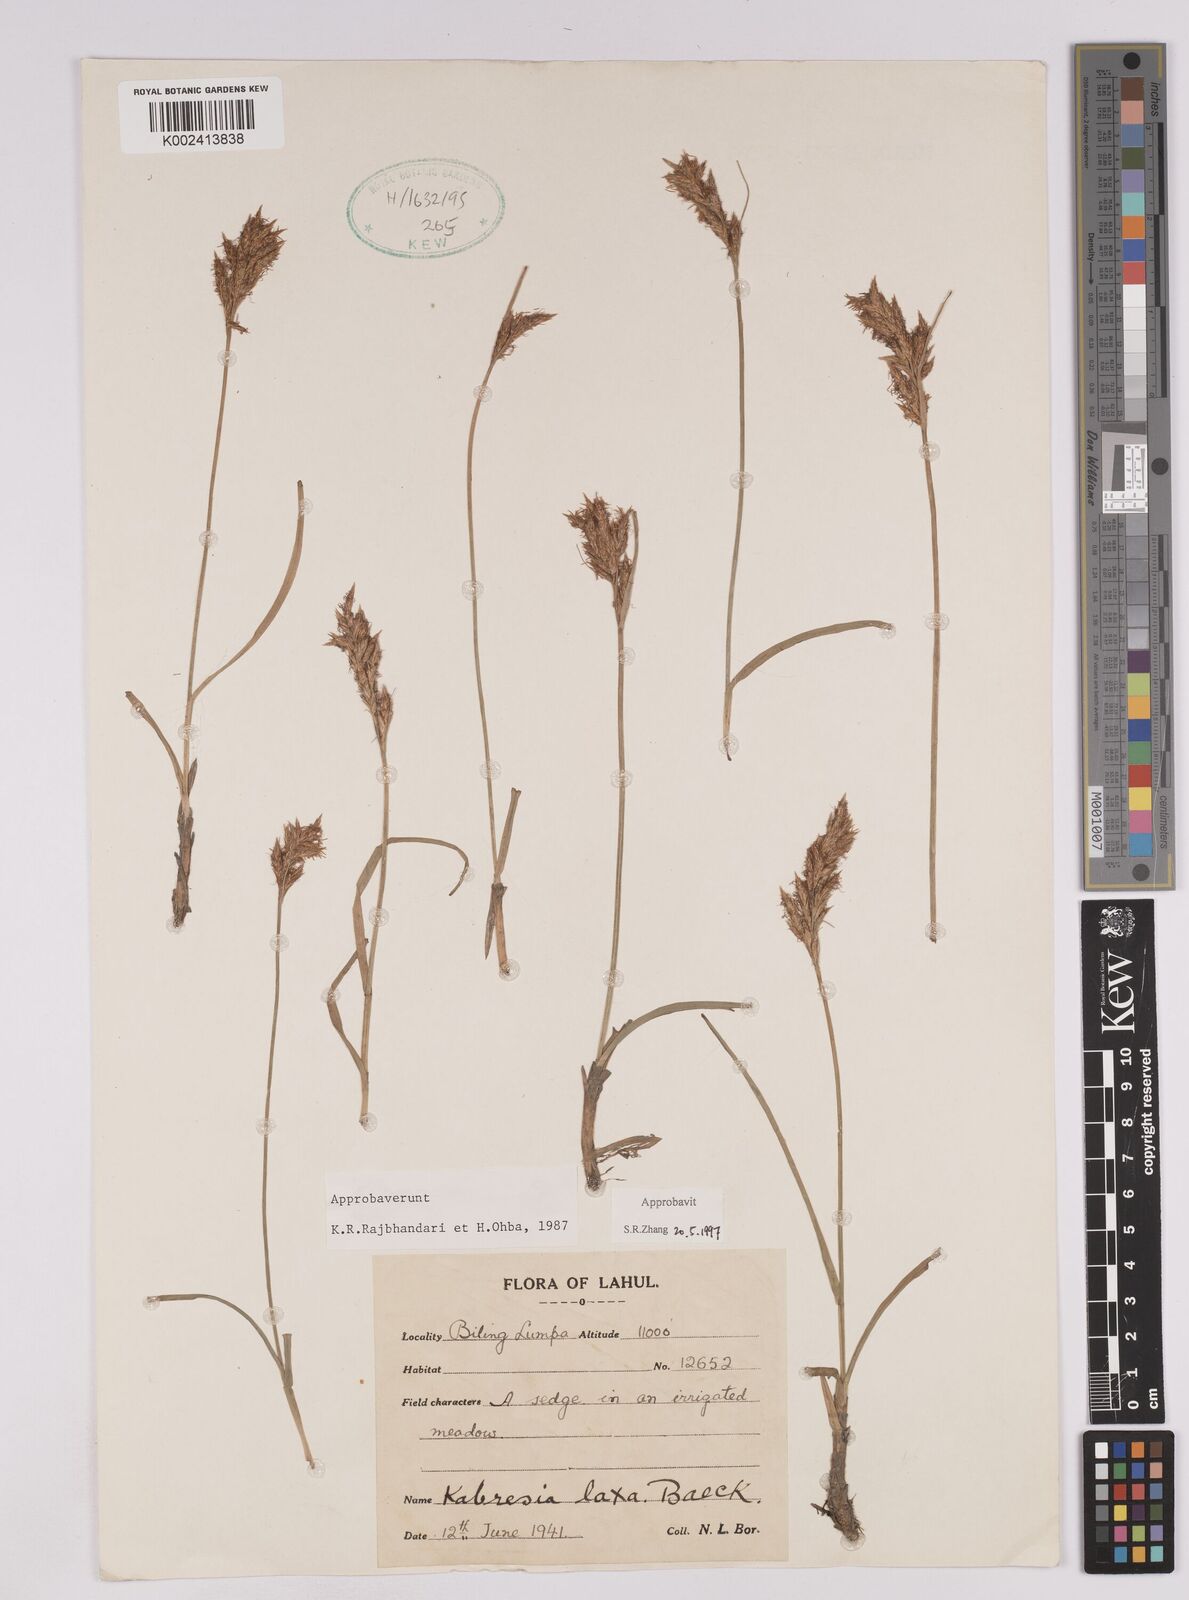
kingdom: Plantae
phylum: Tracheophyta
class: Liliopsida
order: Poales
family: Cyperaceae
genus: Carex
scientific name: Carex pseudolaxa
